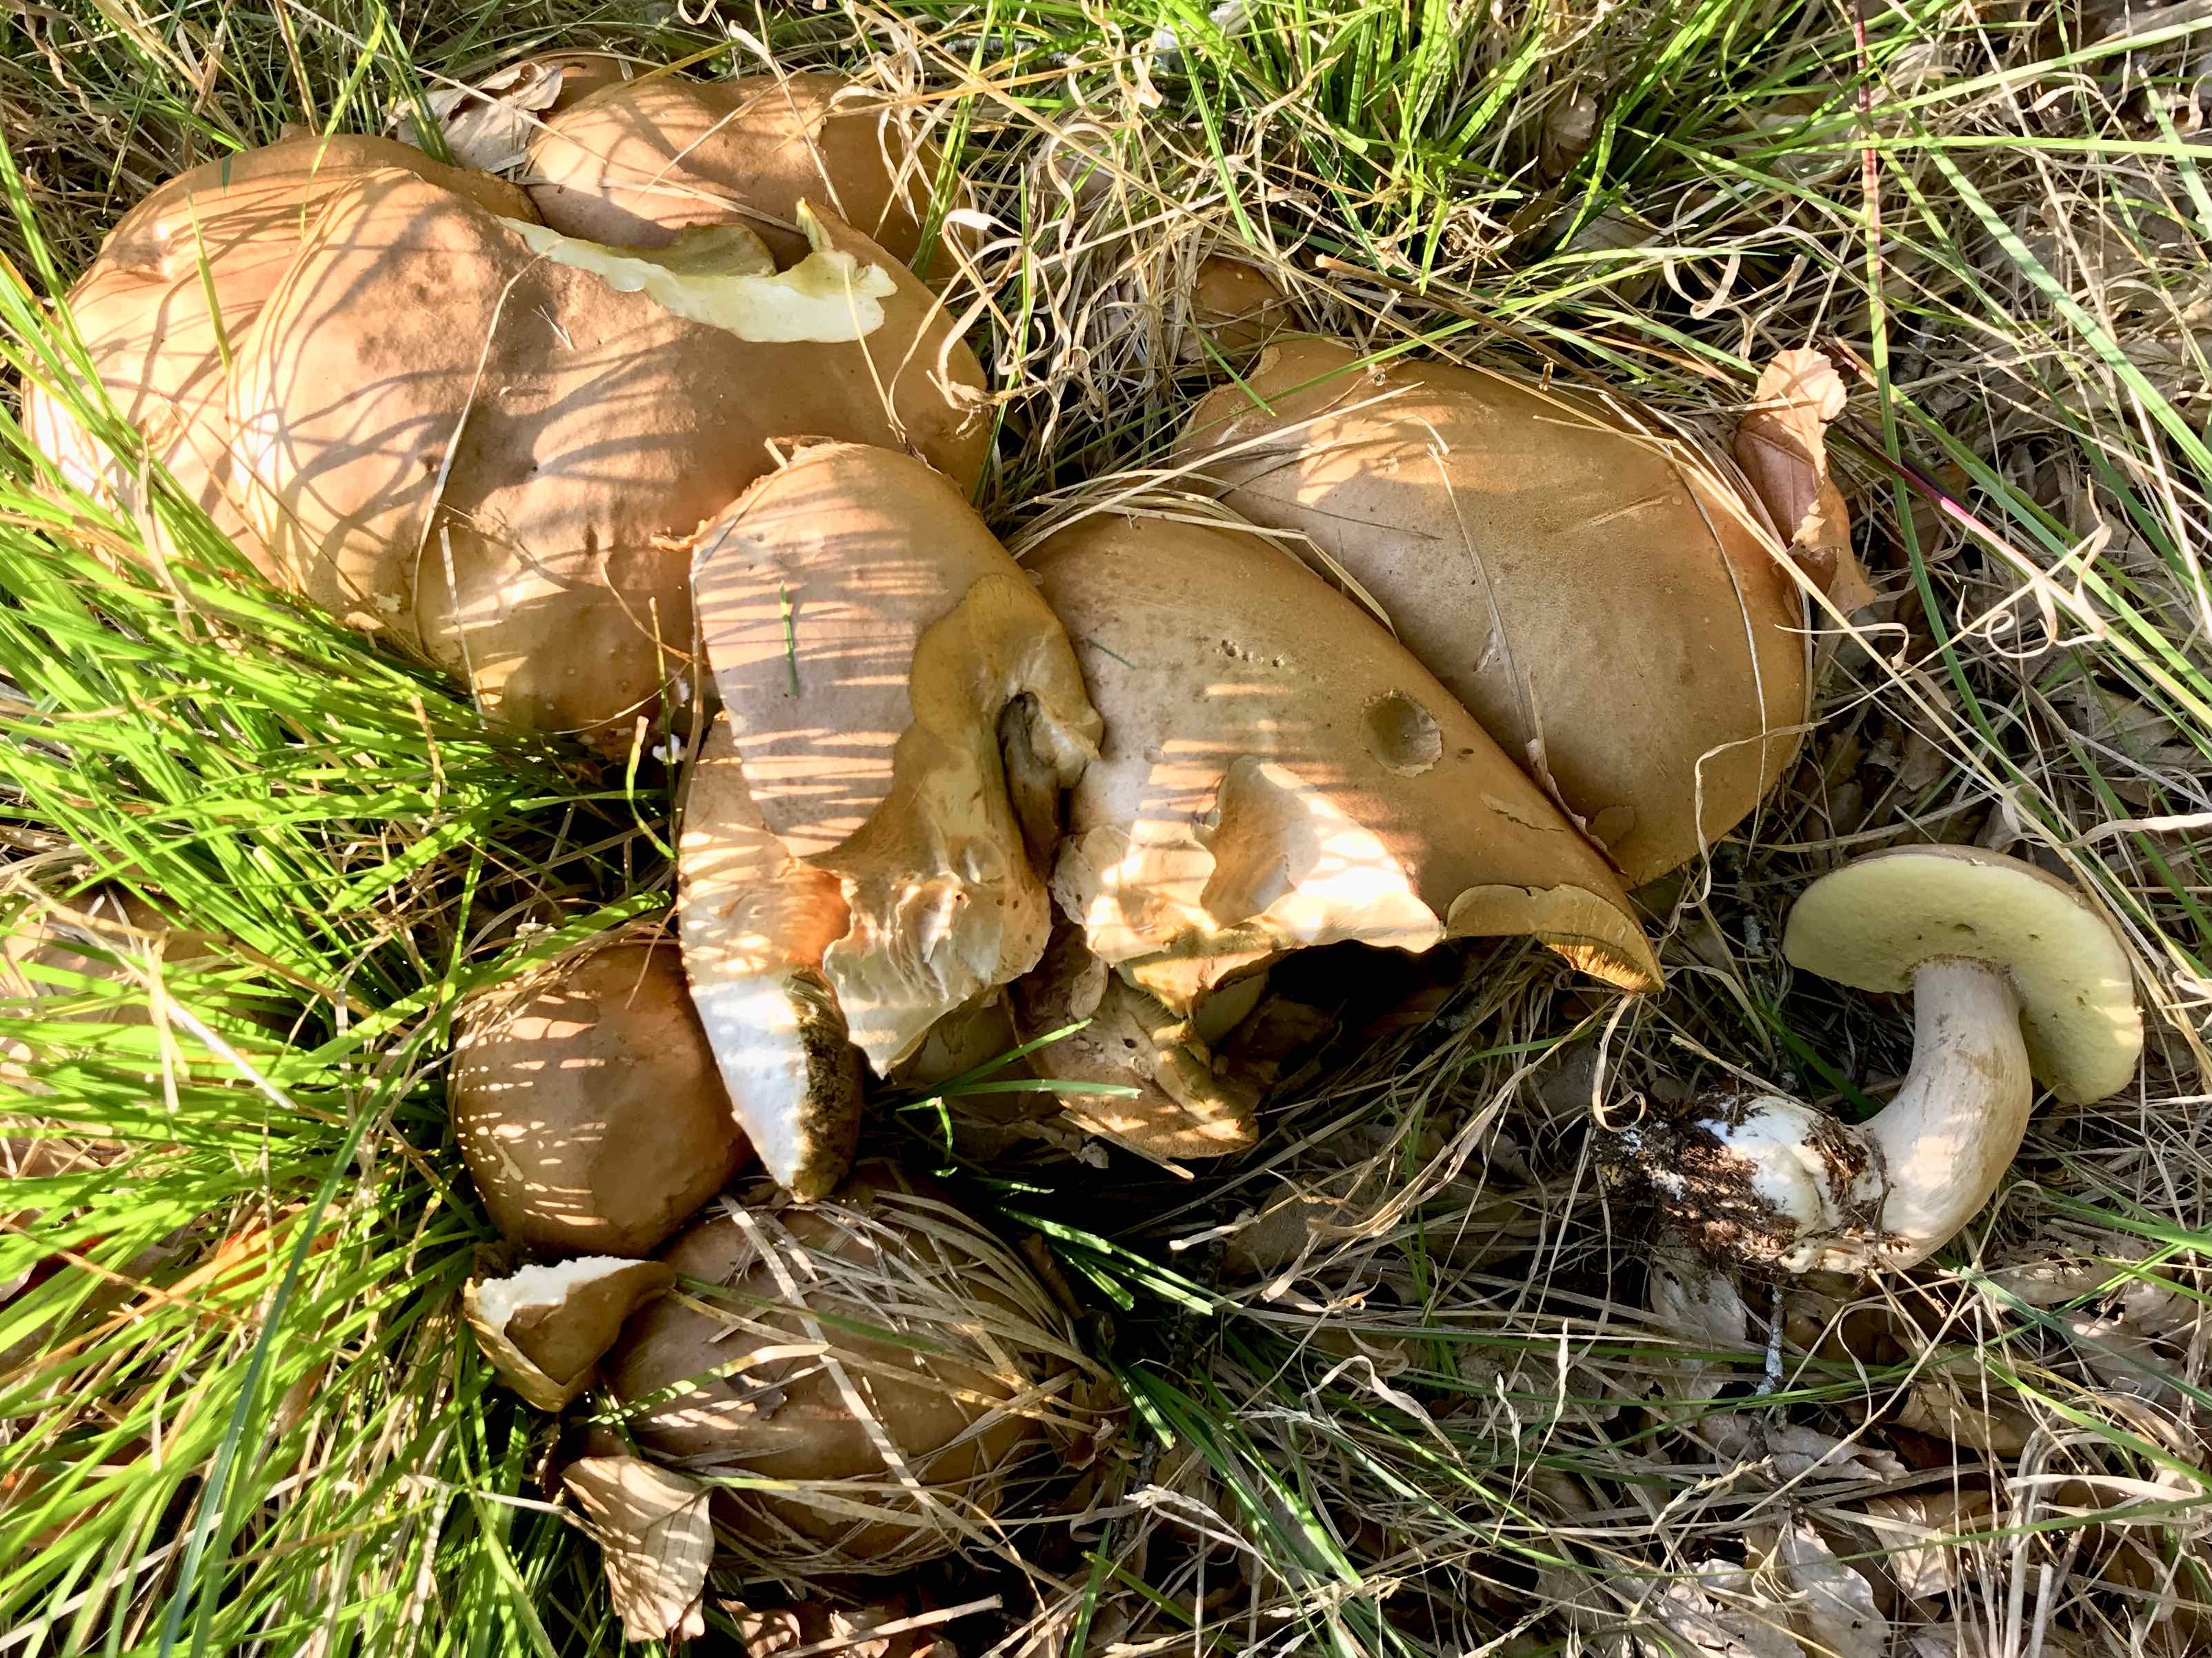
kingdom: Fungi
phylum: Basidiomycota
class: Agaricomycetes
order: Boletales
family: Boletaceae
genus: Boletus
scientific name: Boletus reticulatus
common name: sommer-rørhat
